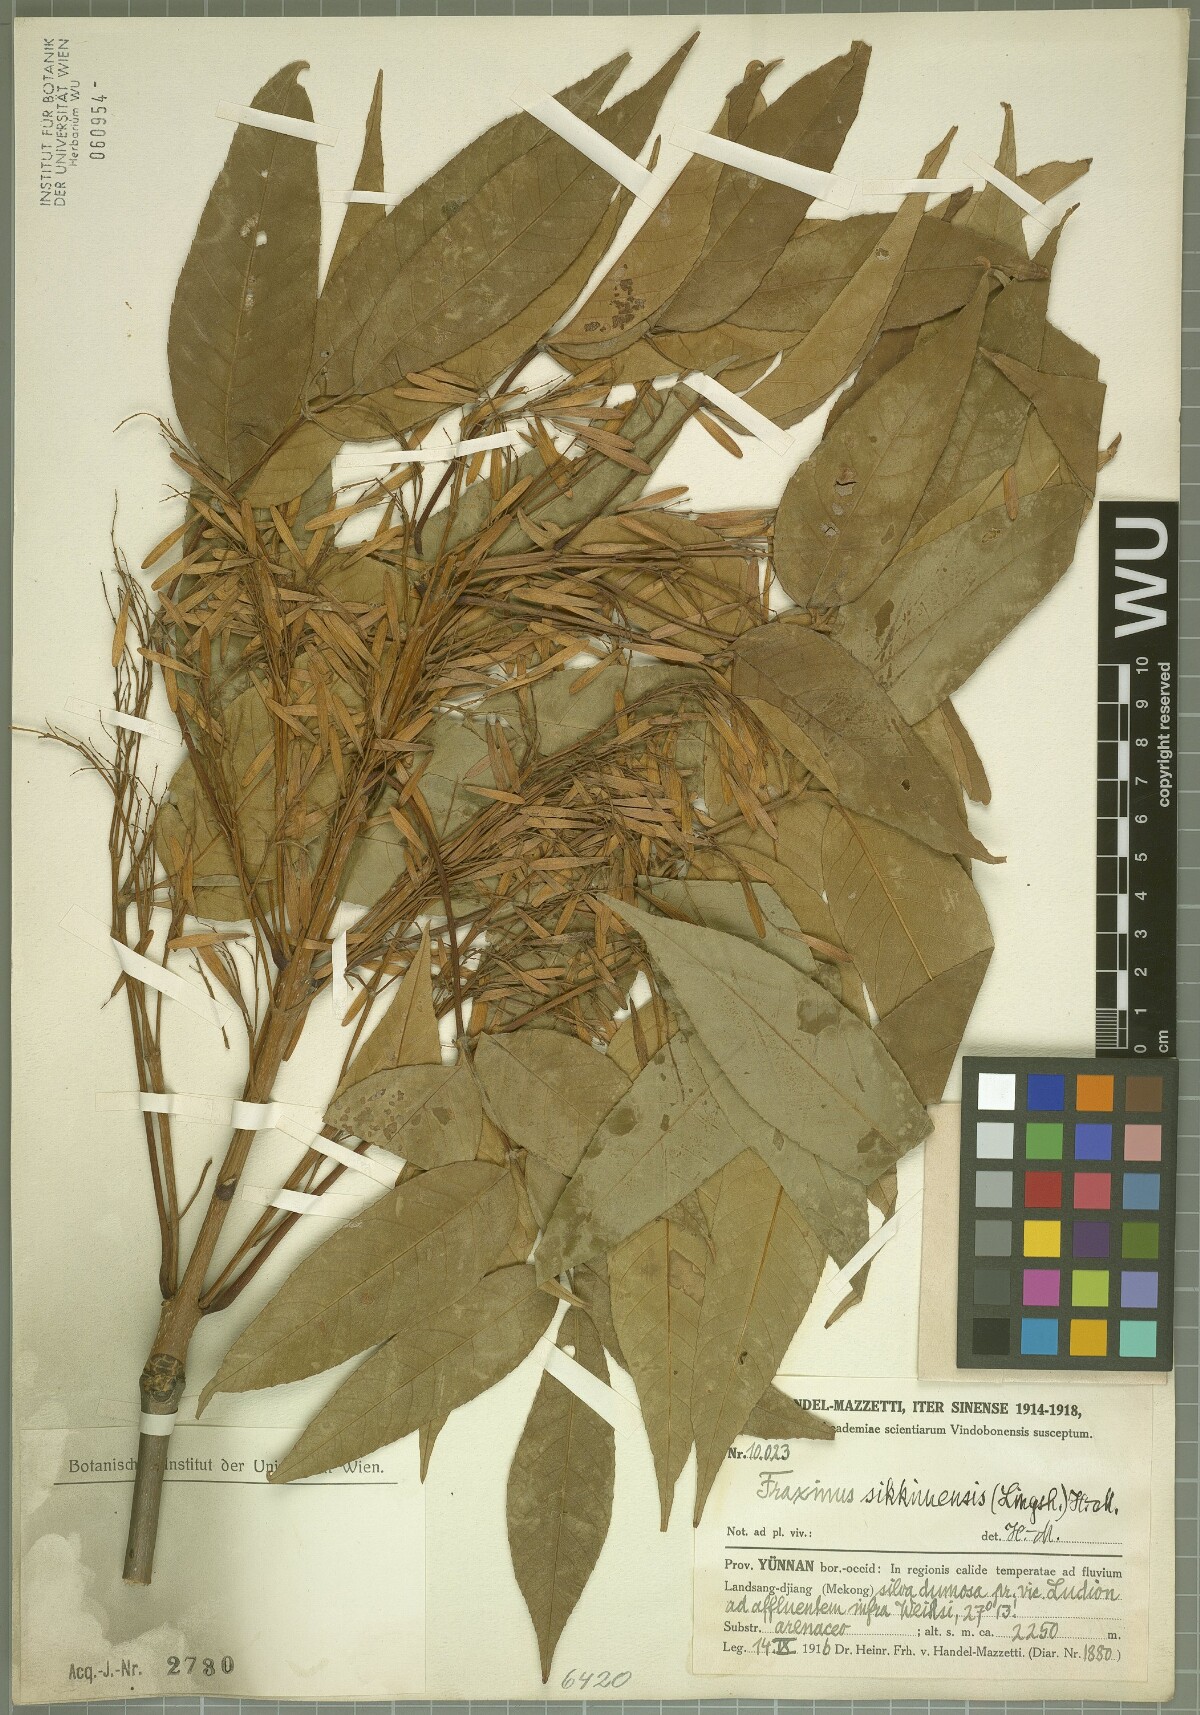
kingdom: Plantae
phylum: Tracheophyta
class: Magnoliopsida
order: Lamiales
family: Oleaceae
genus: Fraxinus
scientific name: Fraxinus suaveolens
